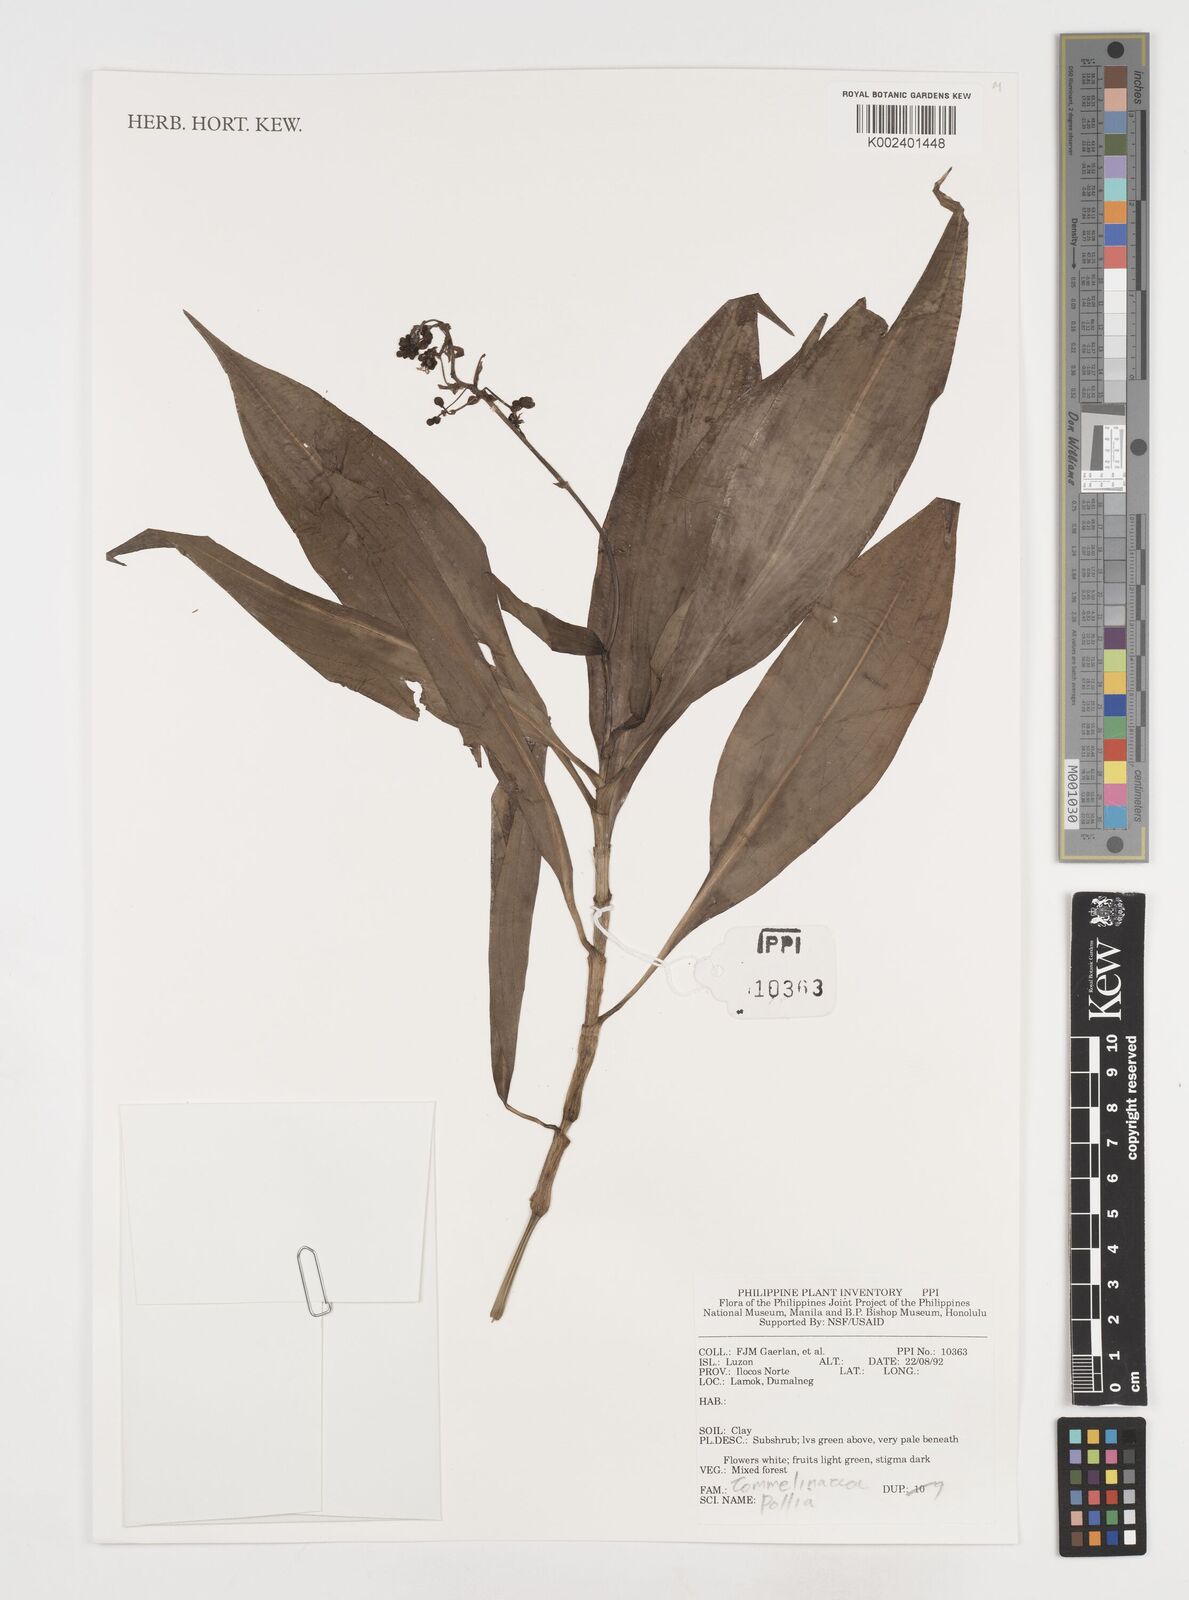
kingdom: Plantae
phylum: Tracheophyta
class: Liliopsida
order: Commelinales
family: Commelinaceae
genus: Pollia
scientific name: Pollia
